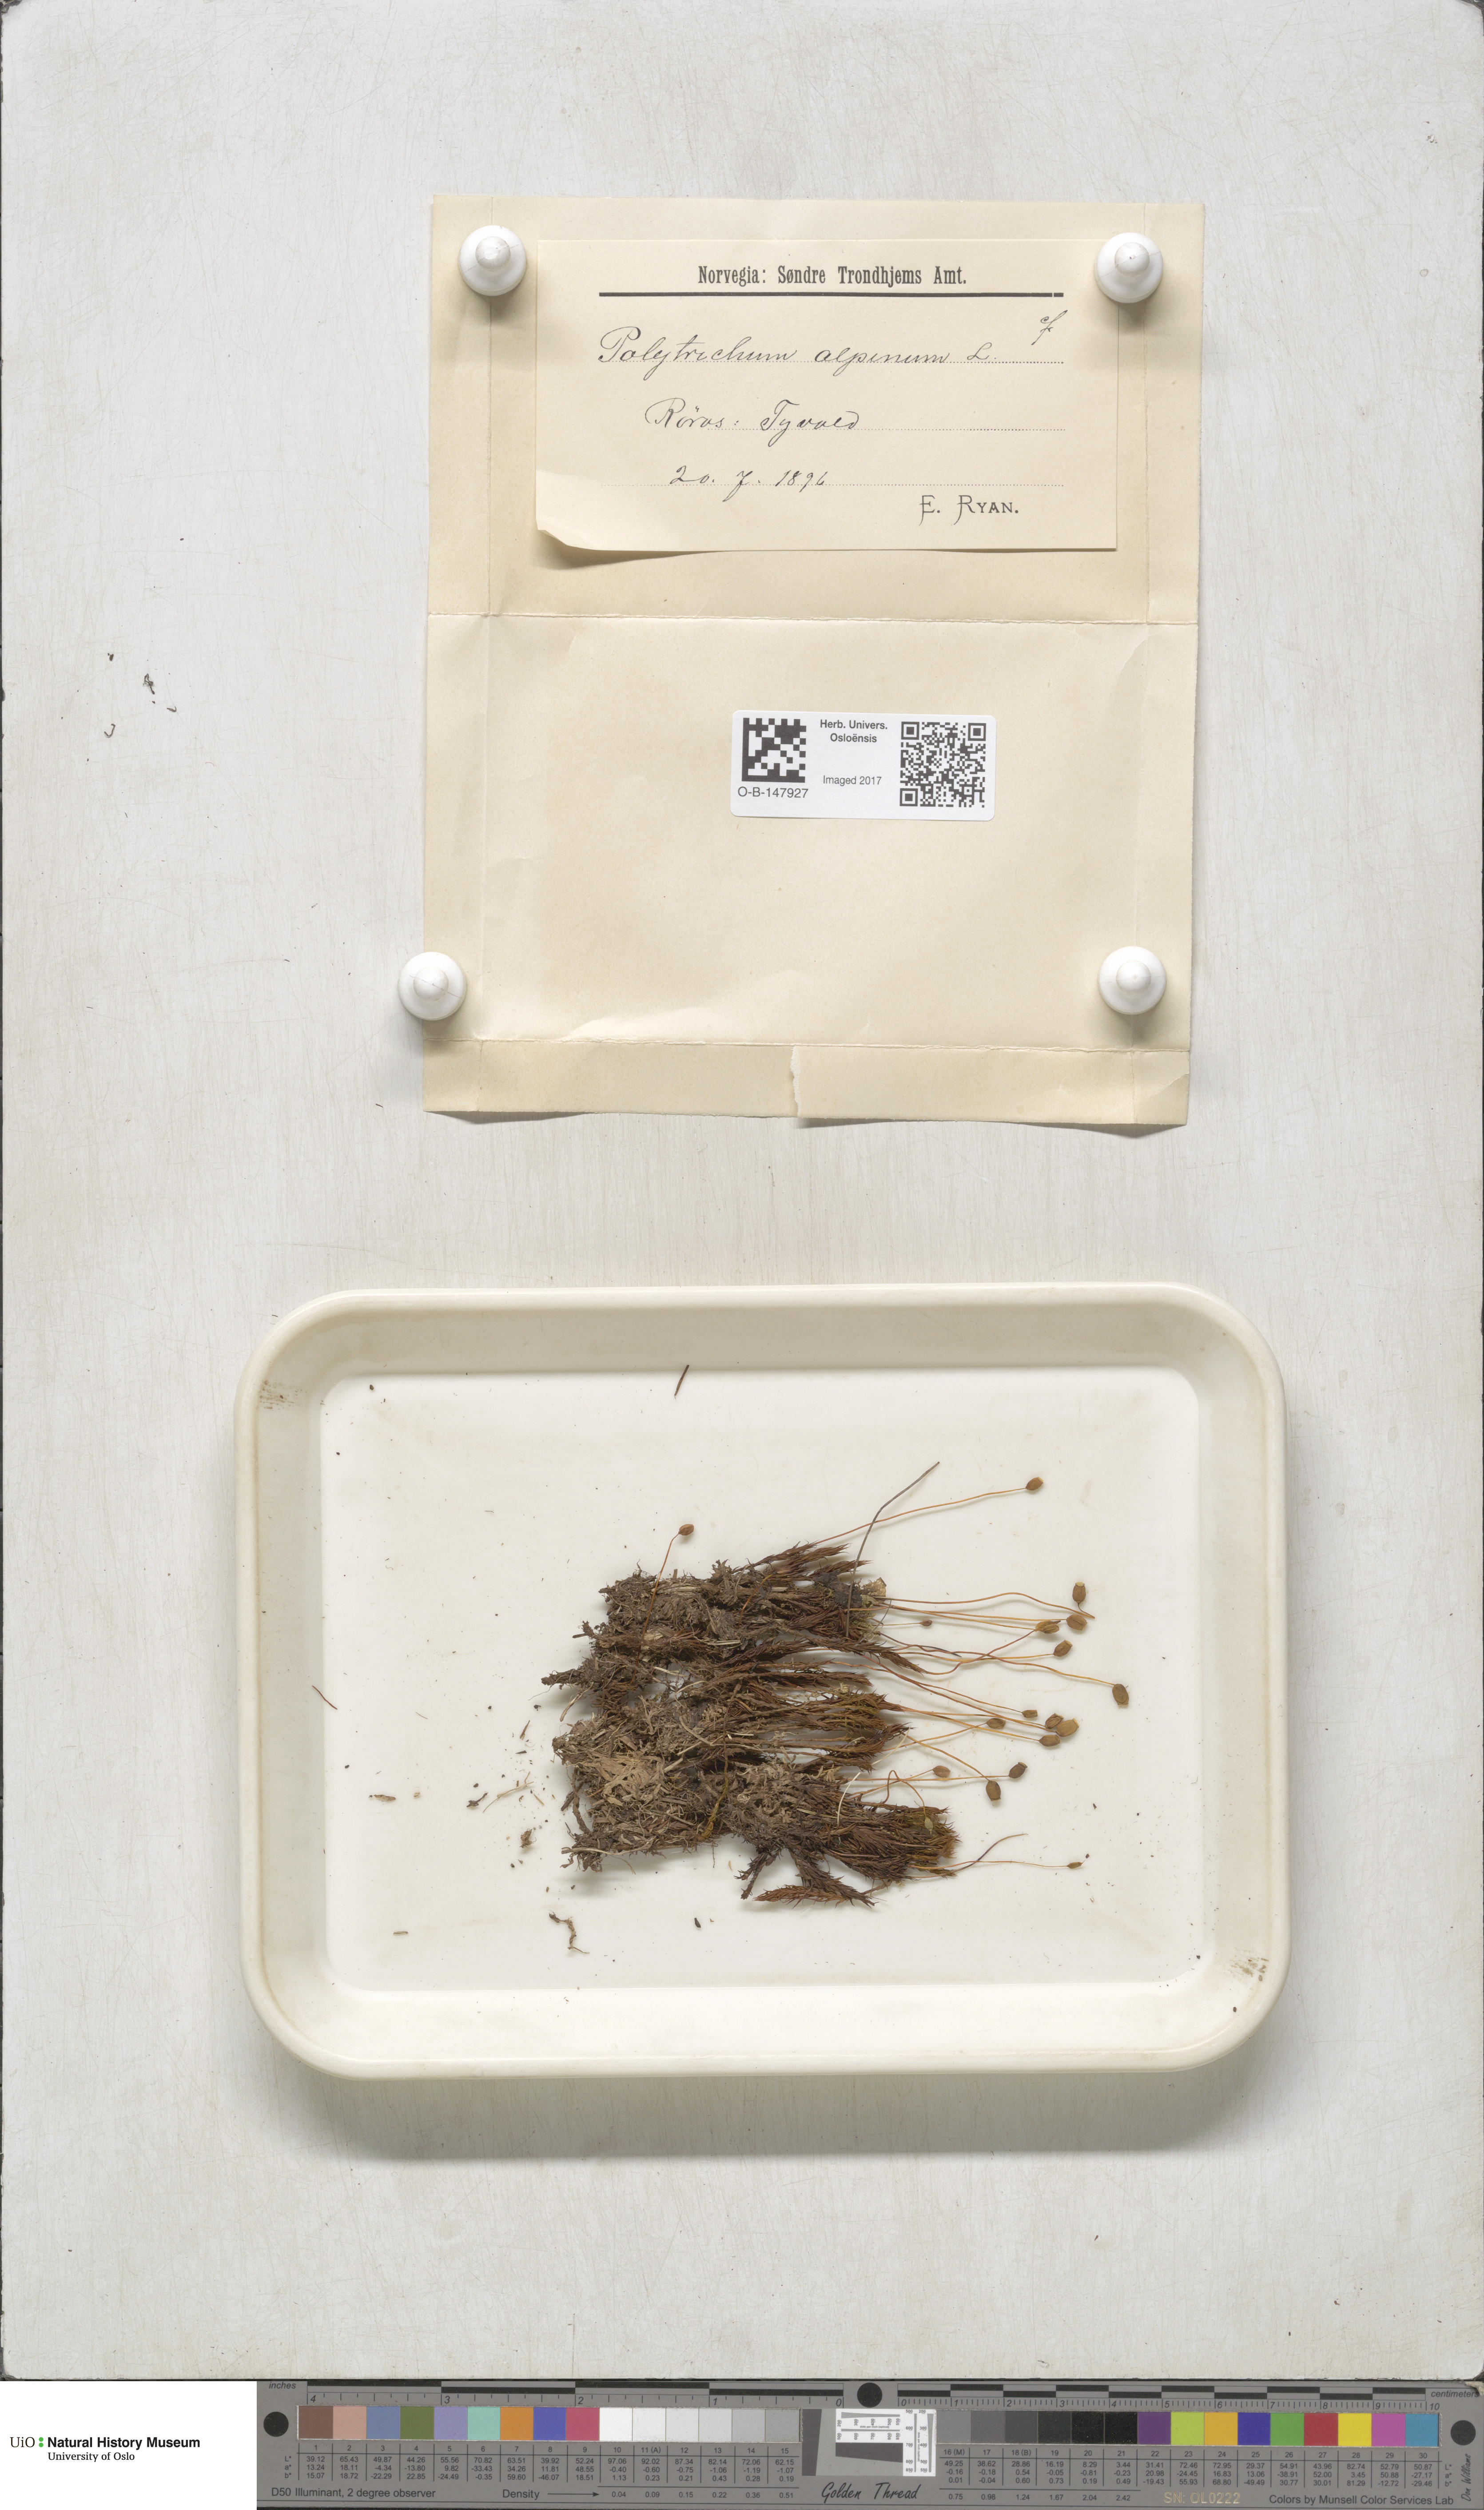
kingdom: Plantae
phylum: Bryophyta
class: Polytrichopsida
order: Polytrichales
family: Polytrichaceae
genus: Polytrichastrum
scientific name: Polytrichastrum alpinum
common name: Alpine haircap
